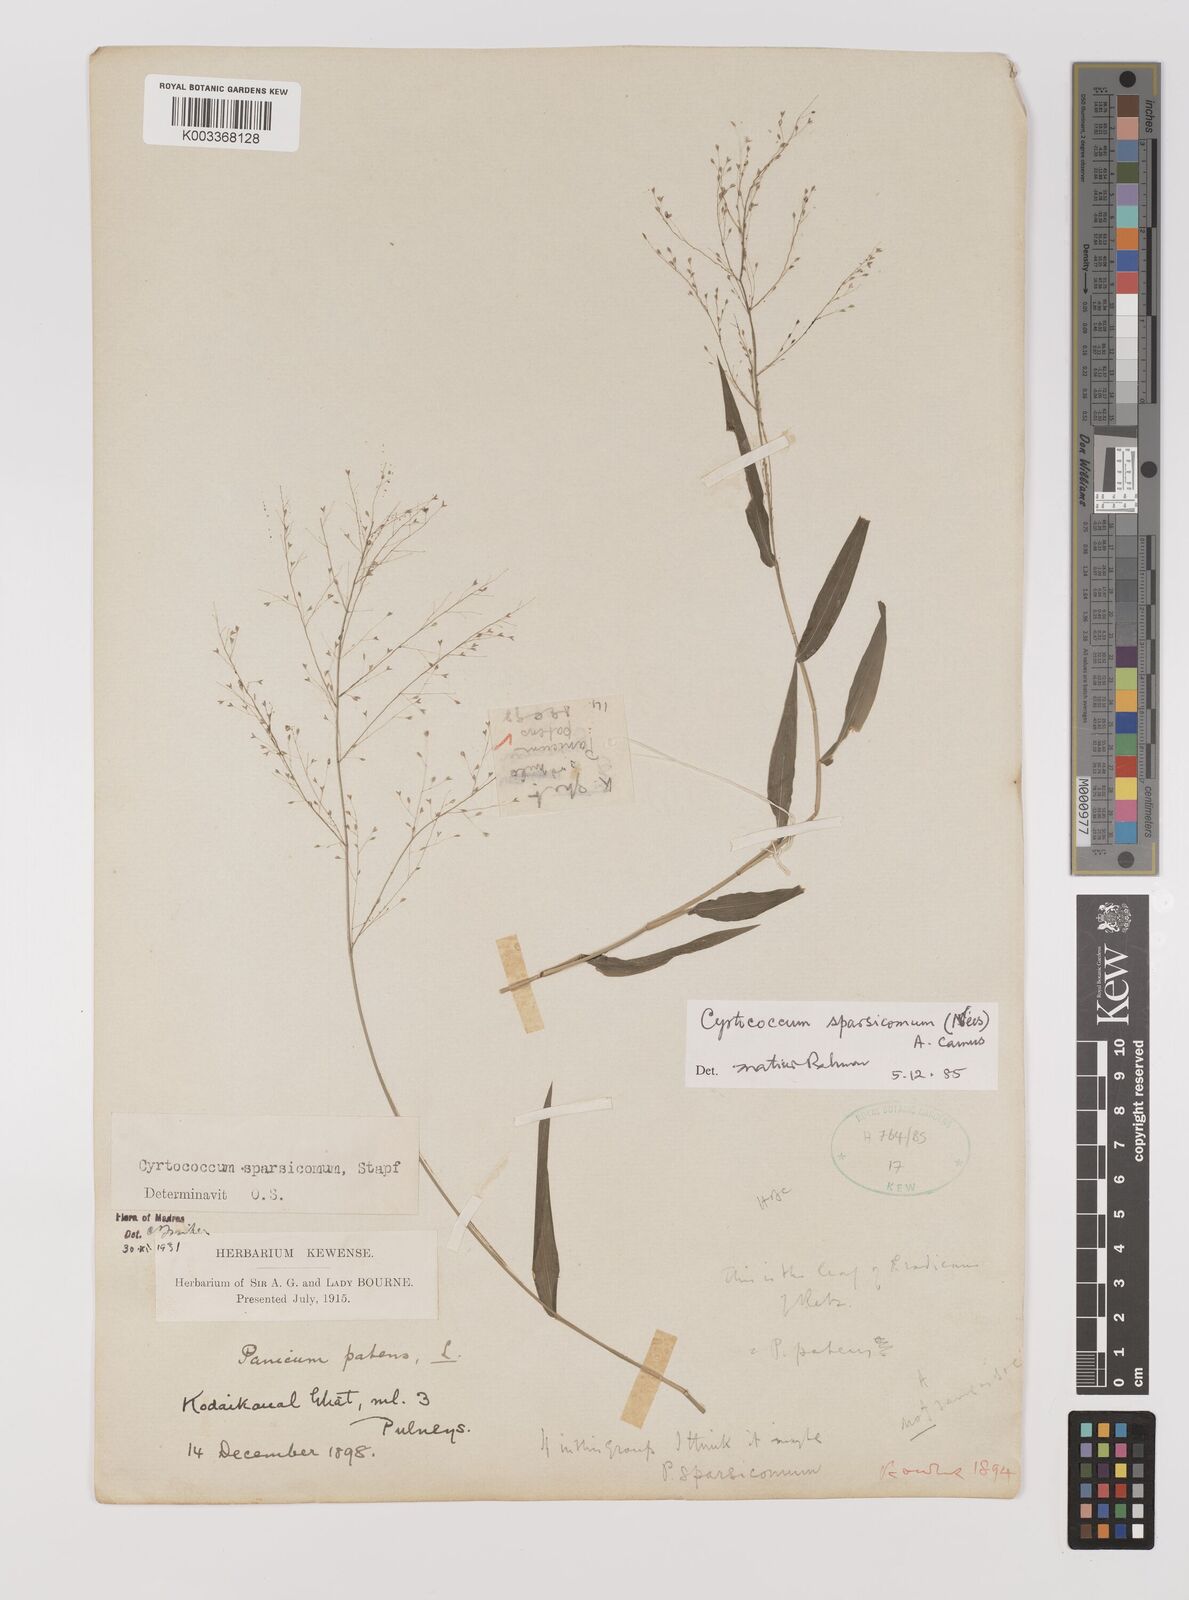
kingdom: Plantae
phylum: Tracheophyta
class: Liliopsida
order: Poales
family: Poaceae
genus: Panicum
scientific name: Panicum sparsicomum
